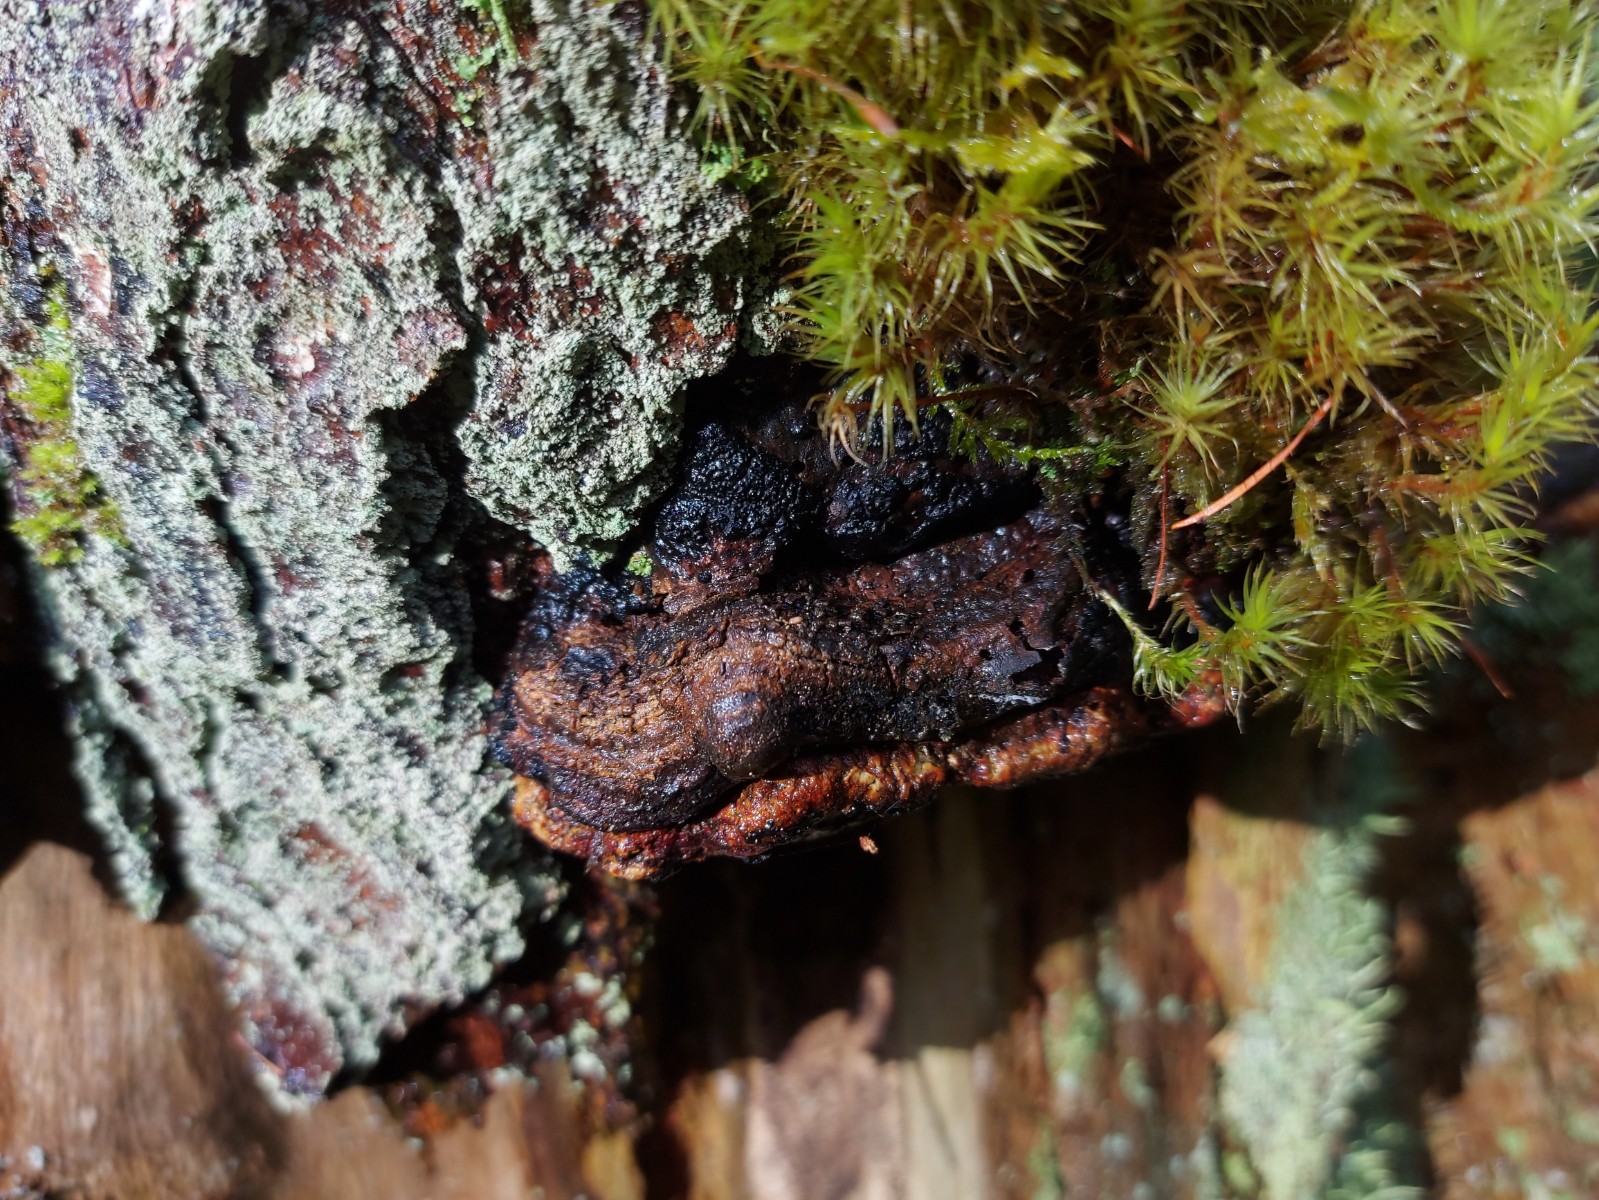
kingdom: Fungi
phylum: Ascomycota
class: Sordariomycetes
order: Xylariales
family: Xylariaceae
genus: Nemania
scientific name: Nemania serpens
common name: hovpore-kuldyne
